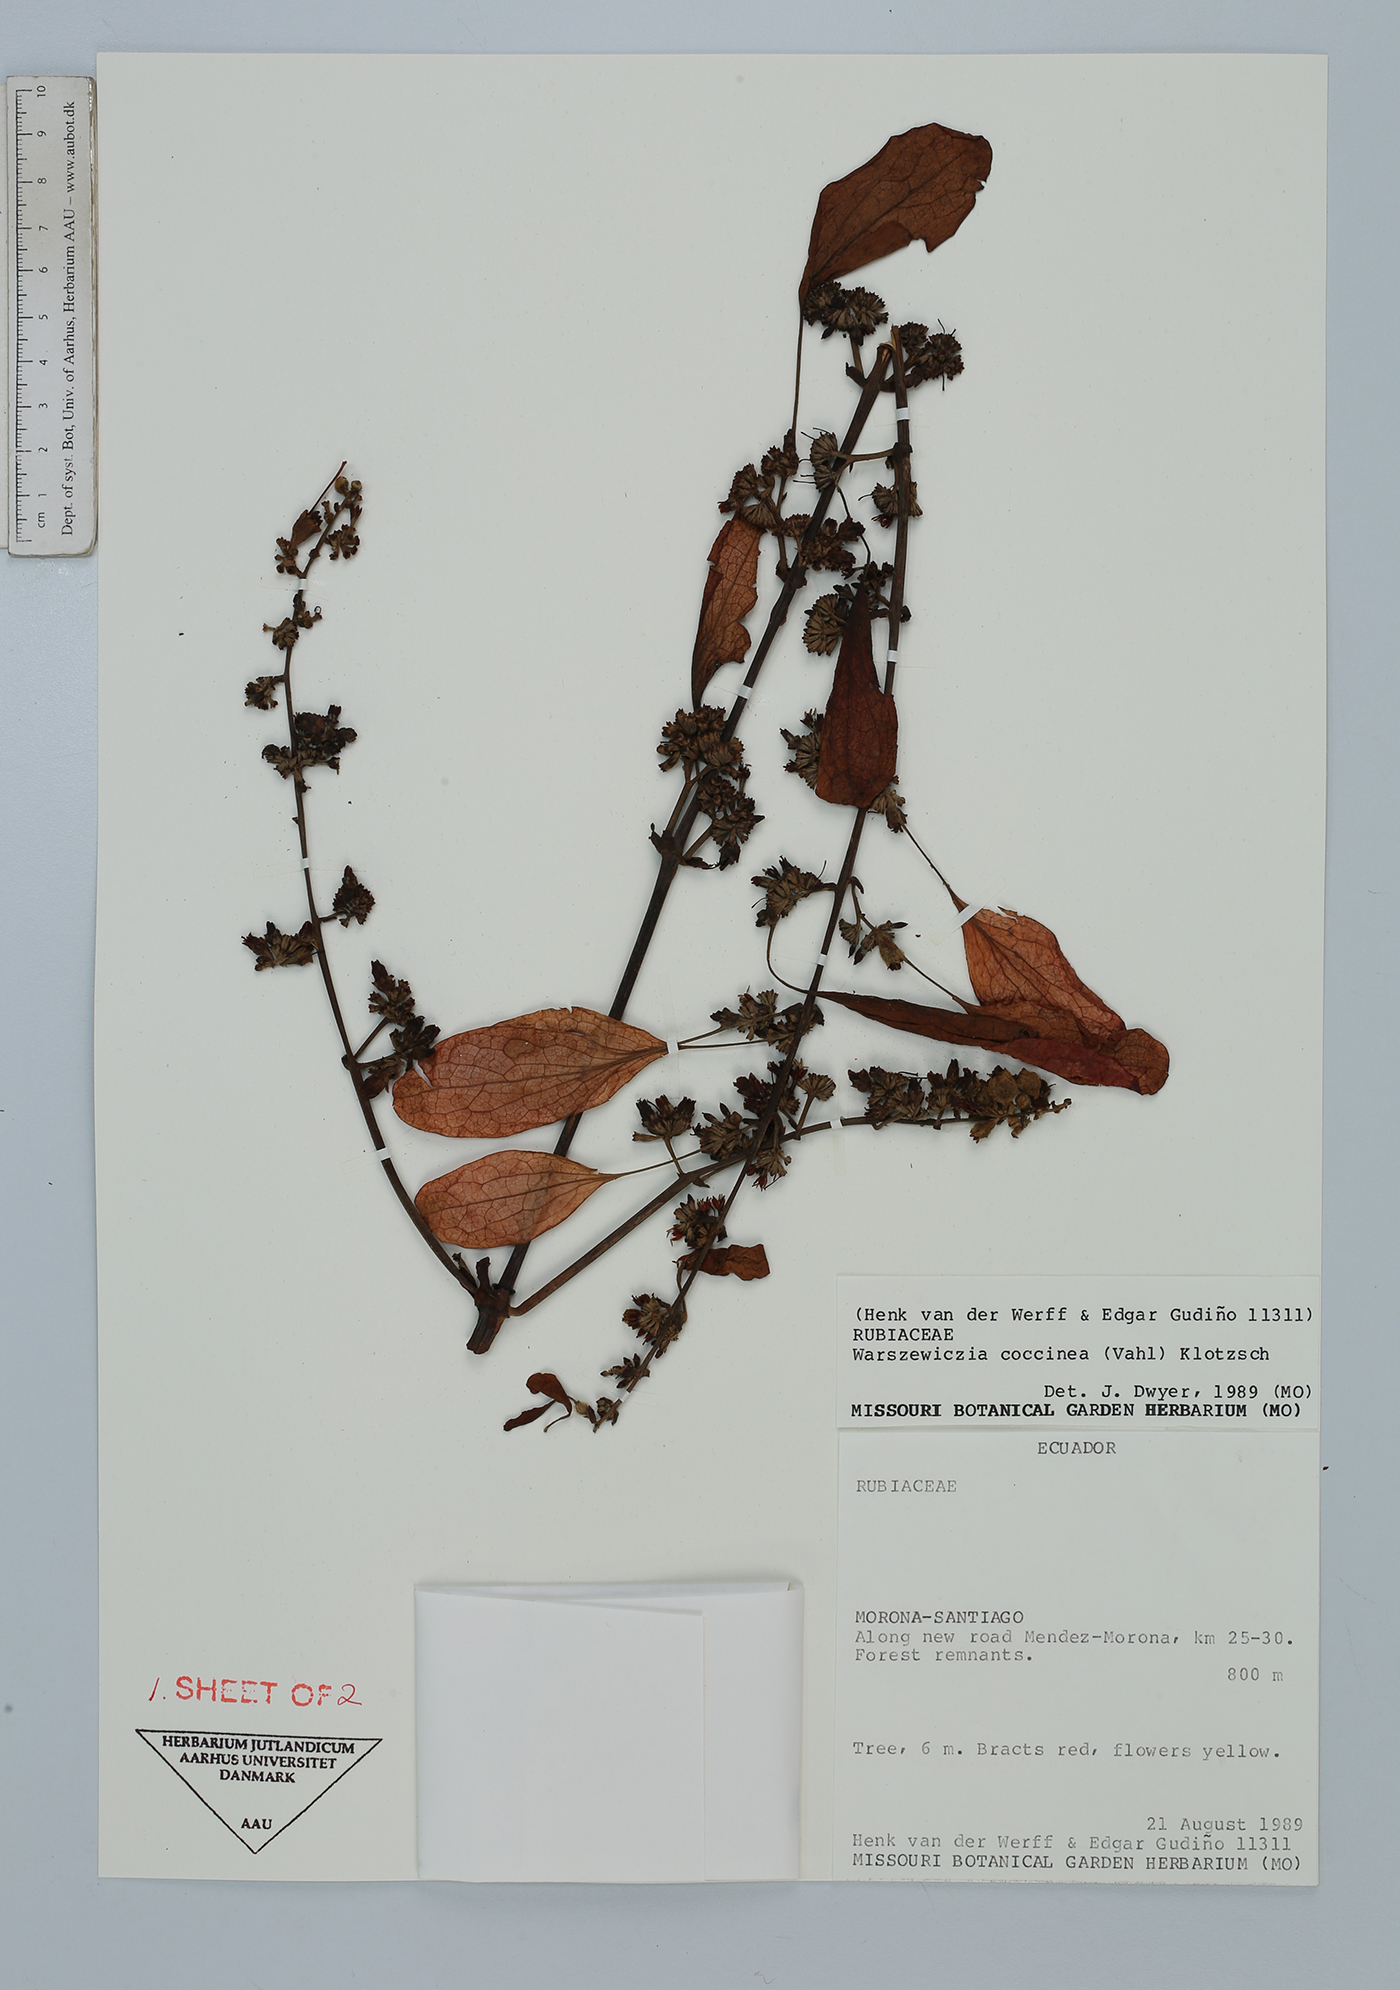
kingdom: Plantae
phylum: Tracheophyta
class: Magnoliopsida
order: Gentianales
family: Rubiaceae
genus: Warszewiczia
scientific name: Warszewiczia coccinea
